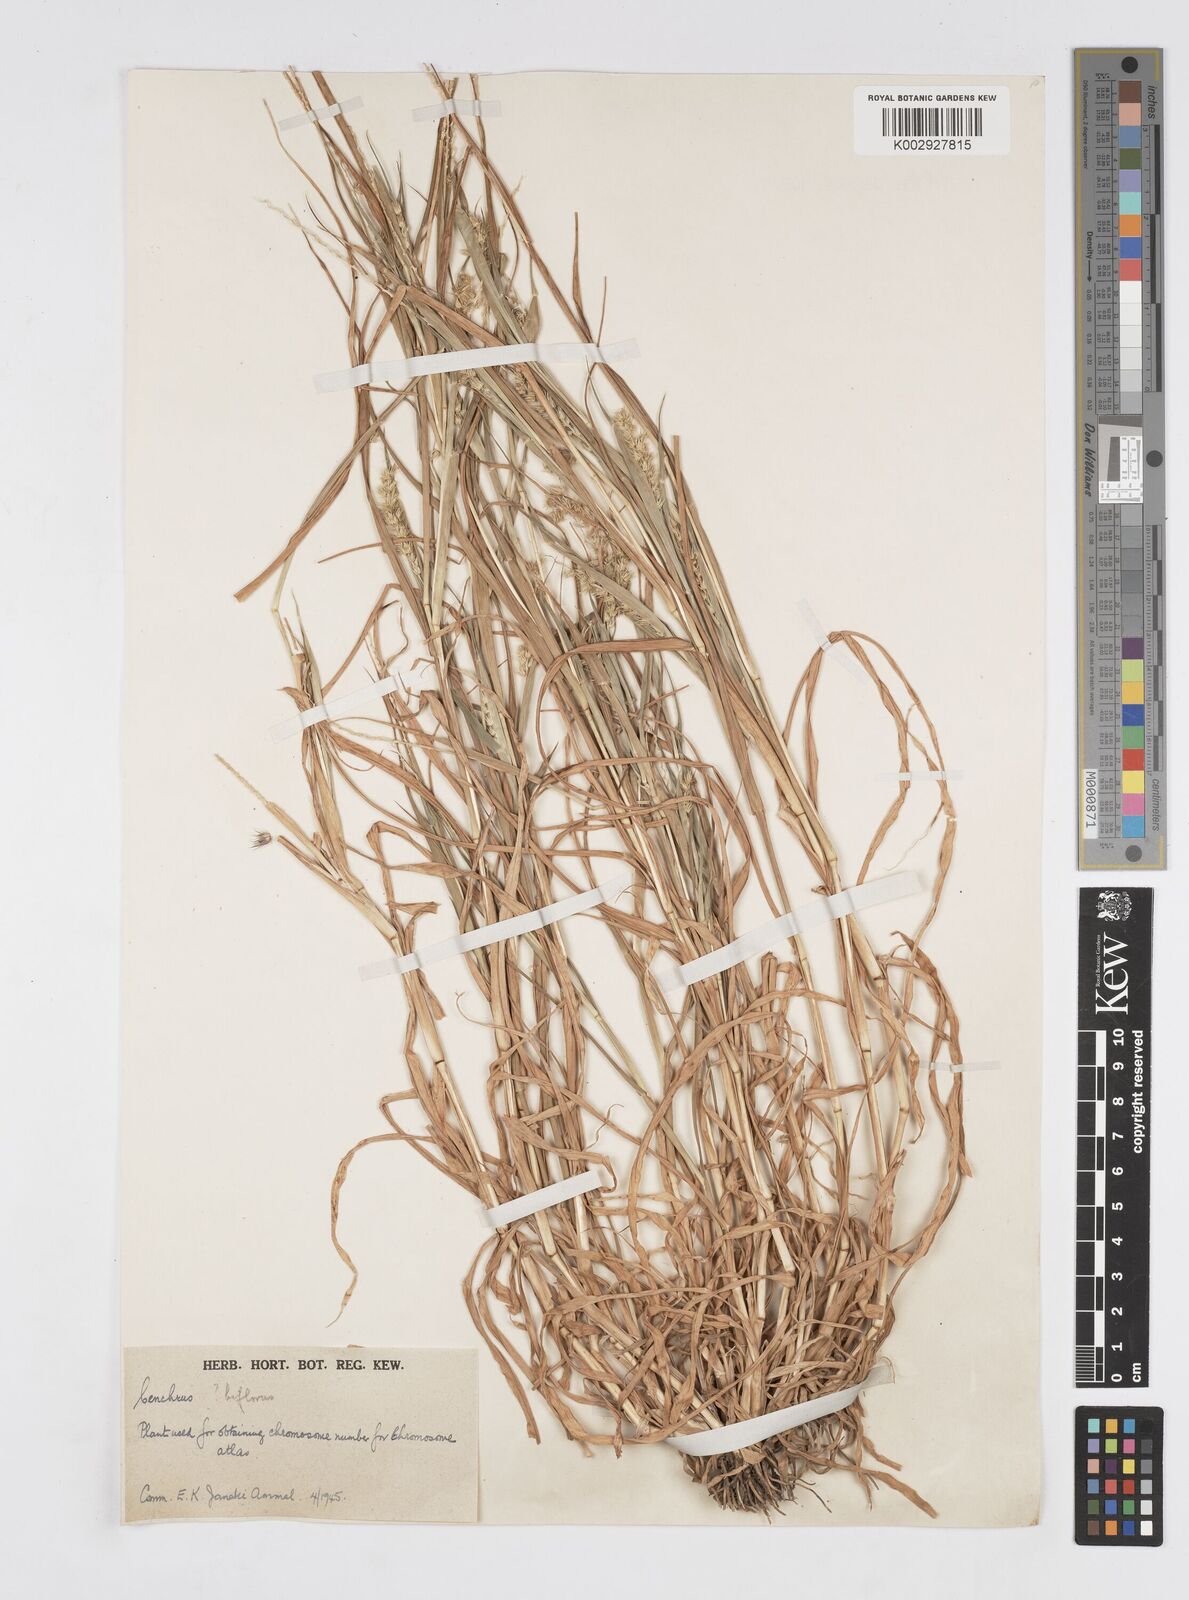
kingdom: Plantae
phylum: Tracheophyta
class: Liliopsida
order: Poales
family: Poaceae
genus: Cenchrus
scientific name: Cenchrus
